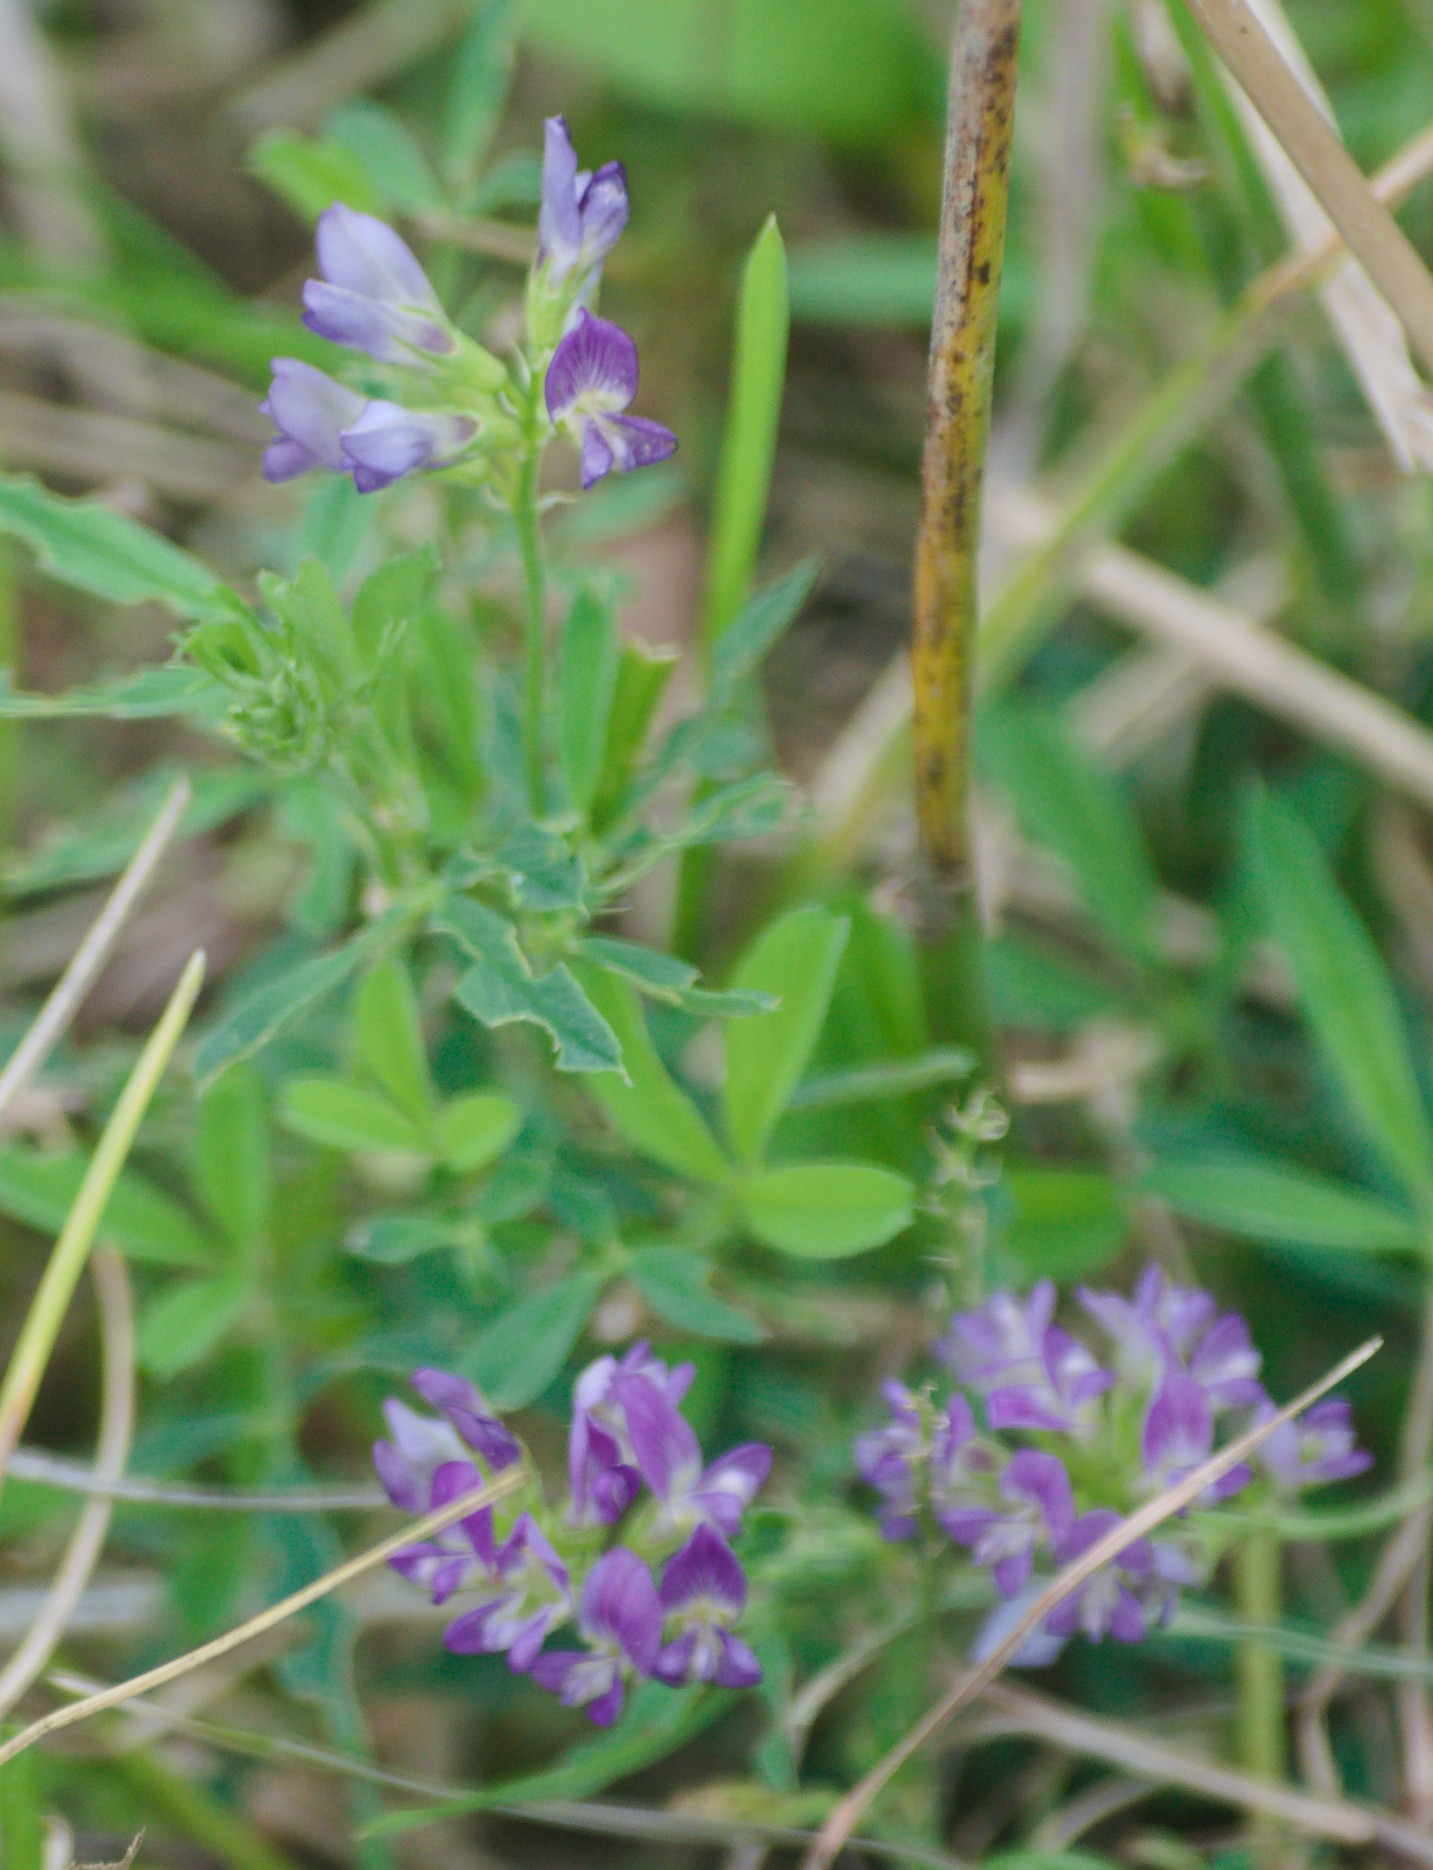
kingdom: Plantae
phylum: Tracheophyta
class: Magnoliopsida
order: Fabales
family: Fabaceae
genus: Medicago
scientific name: Medicago sativa
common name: Lucerne
